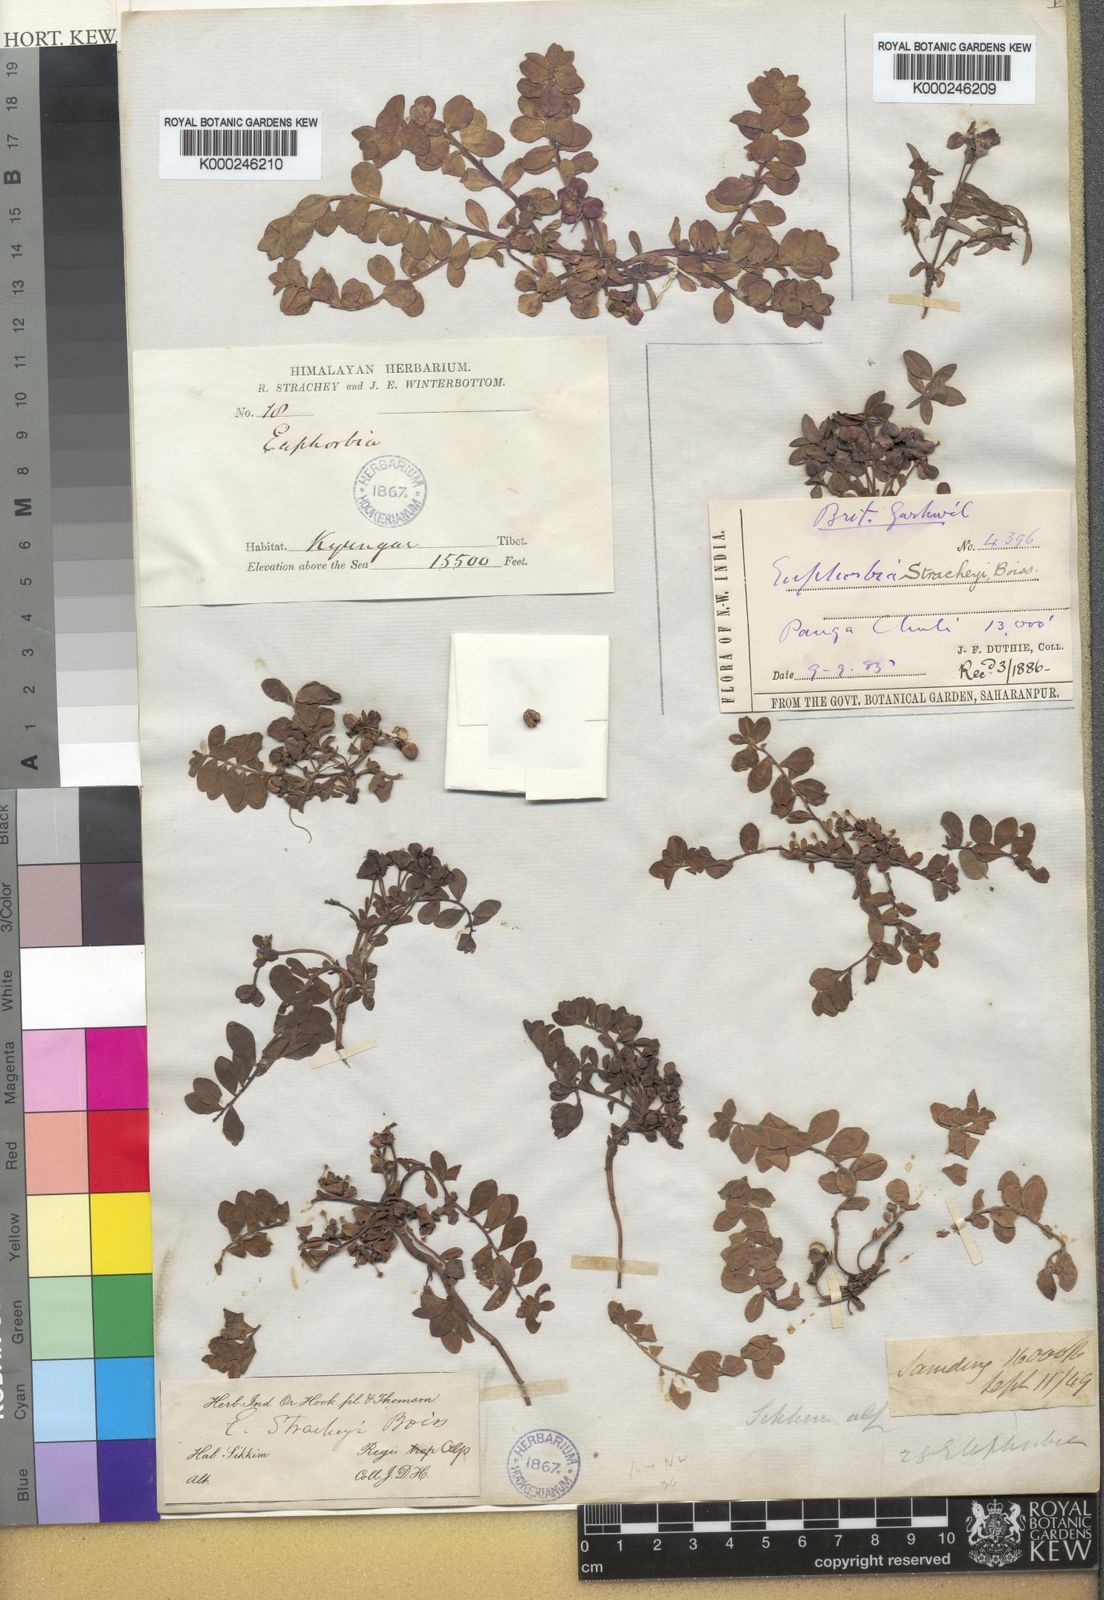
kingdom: Plantae
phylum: Tracheophyta
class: Magnoliopsida
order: Malpighiales
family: Euphorbiaceae
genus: Euphorbia
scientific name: Euphorbia stracheyi
